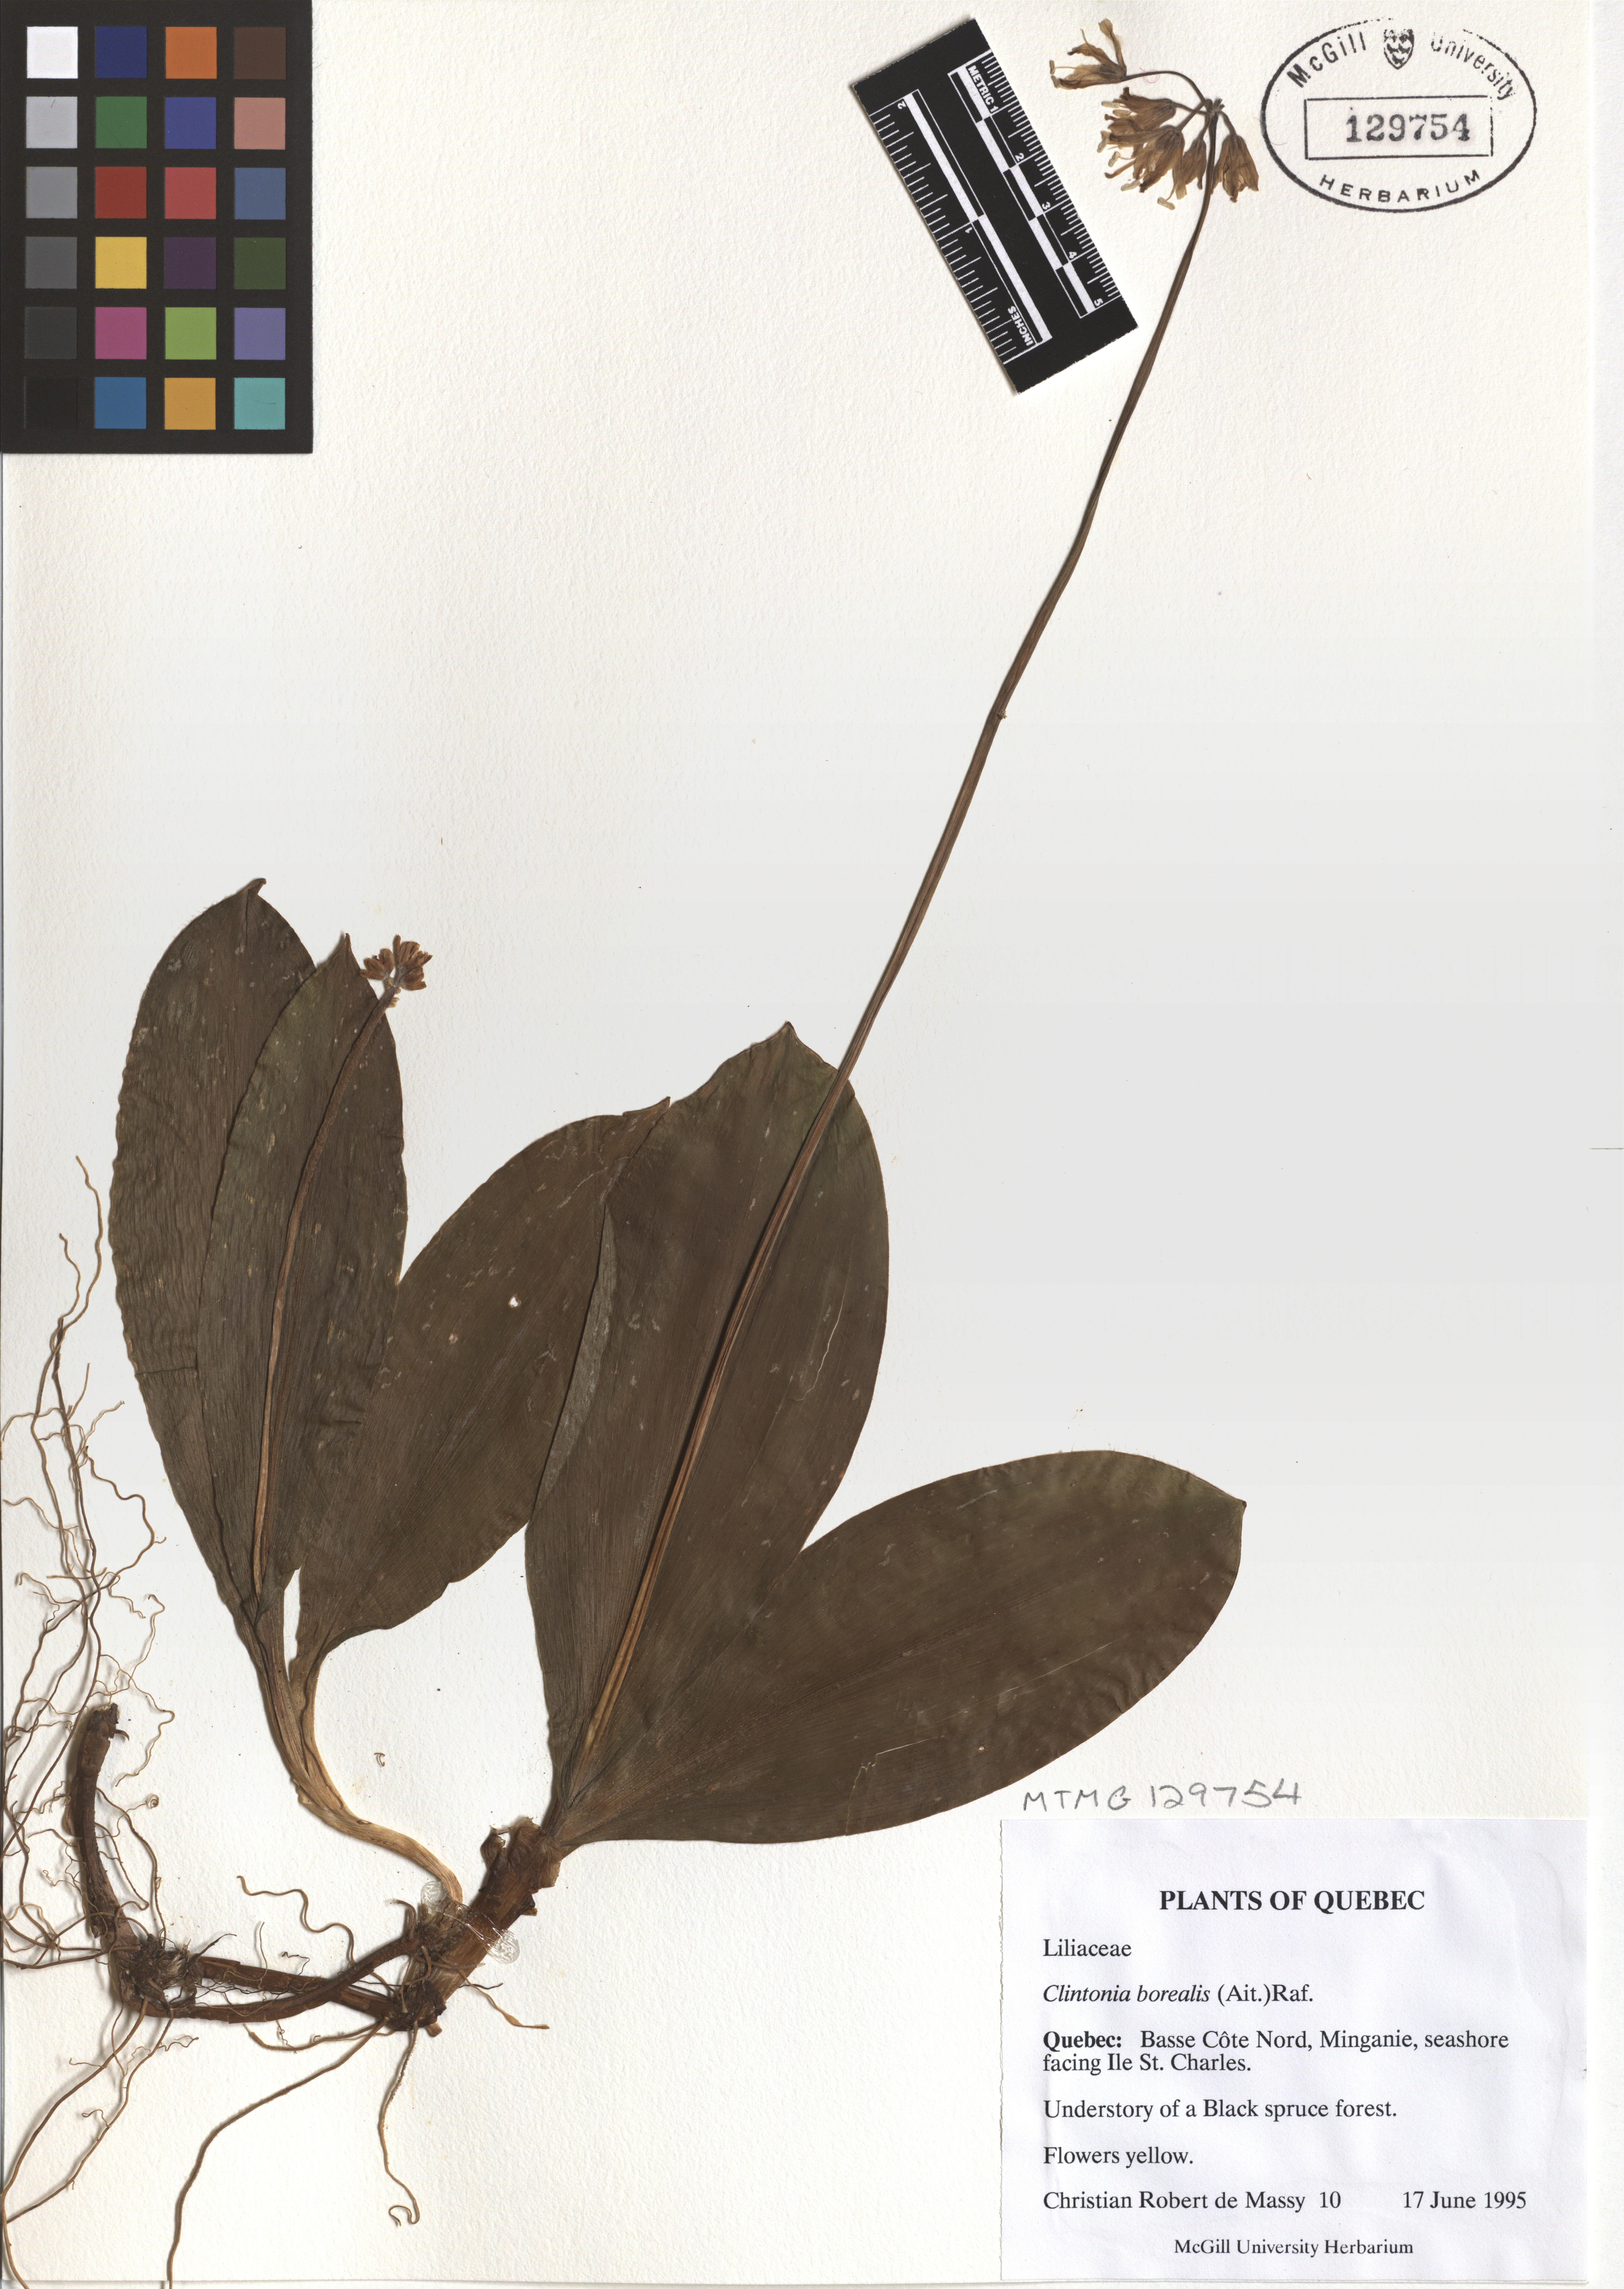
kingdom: Plantae
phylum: Tracheophyta
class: Liliopsida
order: Liliales
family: Liliaceae
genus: Clintonia
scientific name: Clintonia borealis
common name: Yellow clintonia
